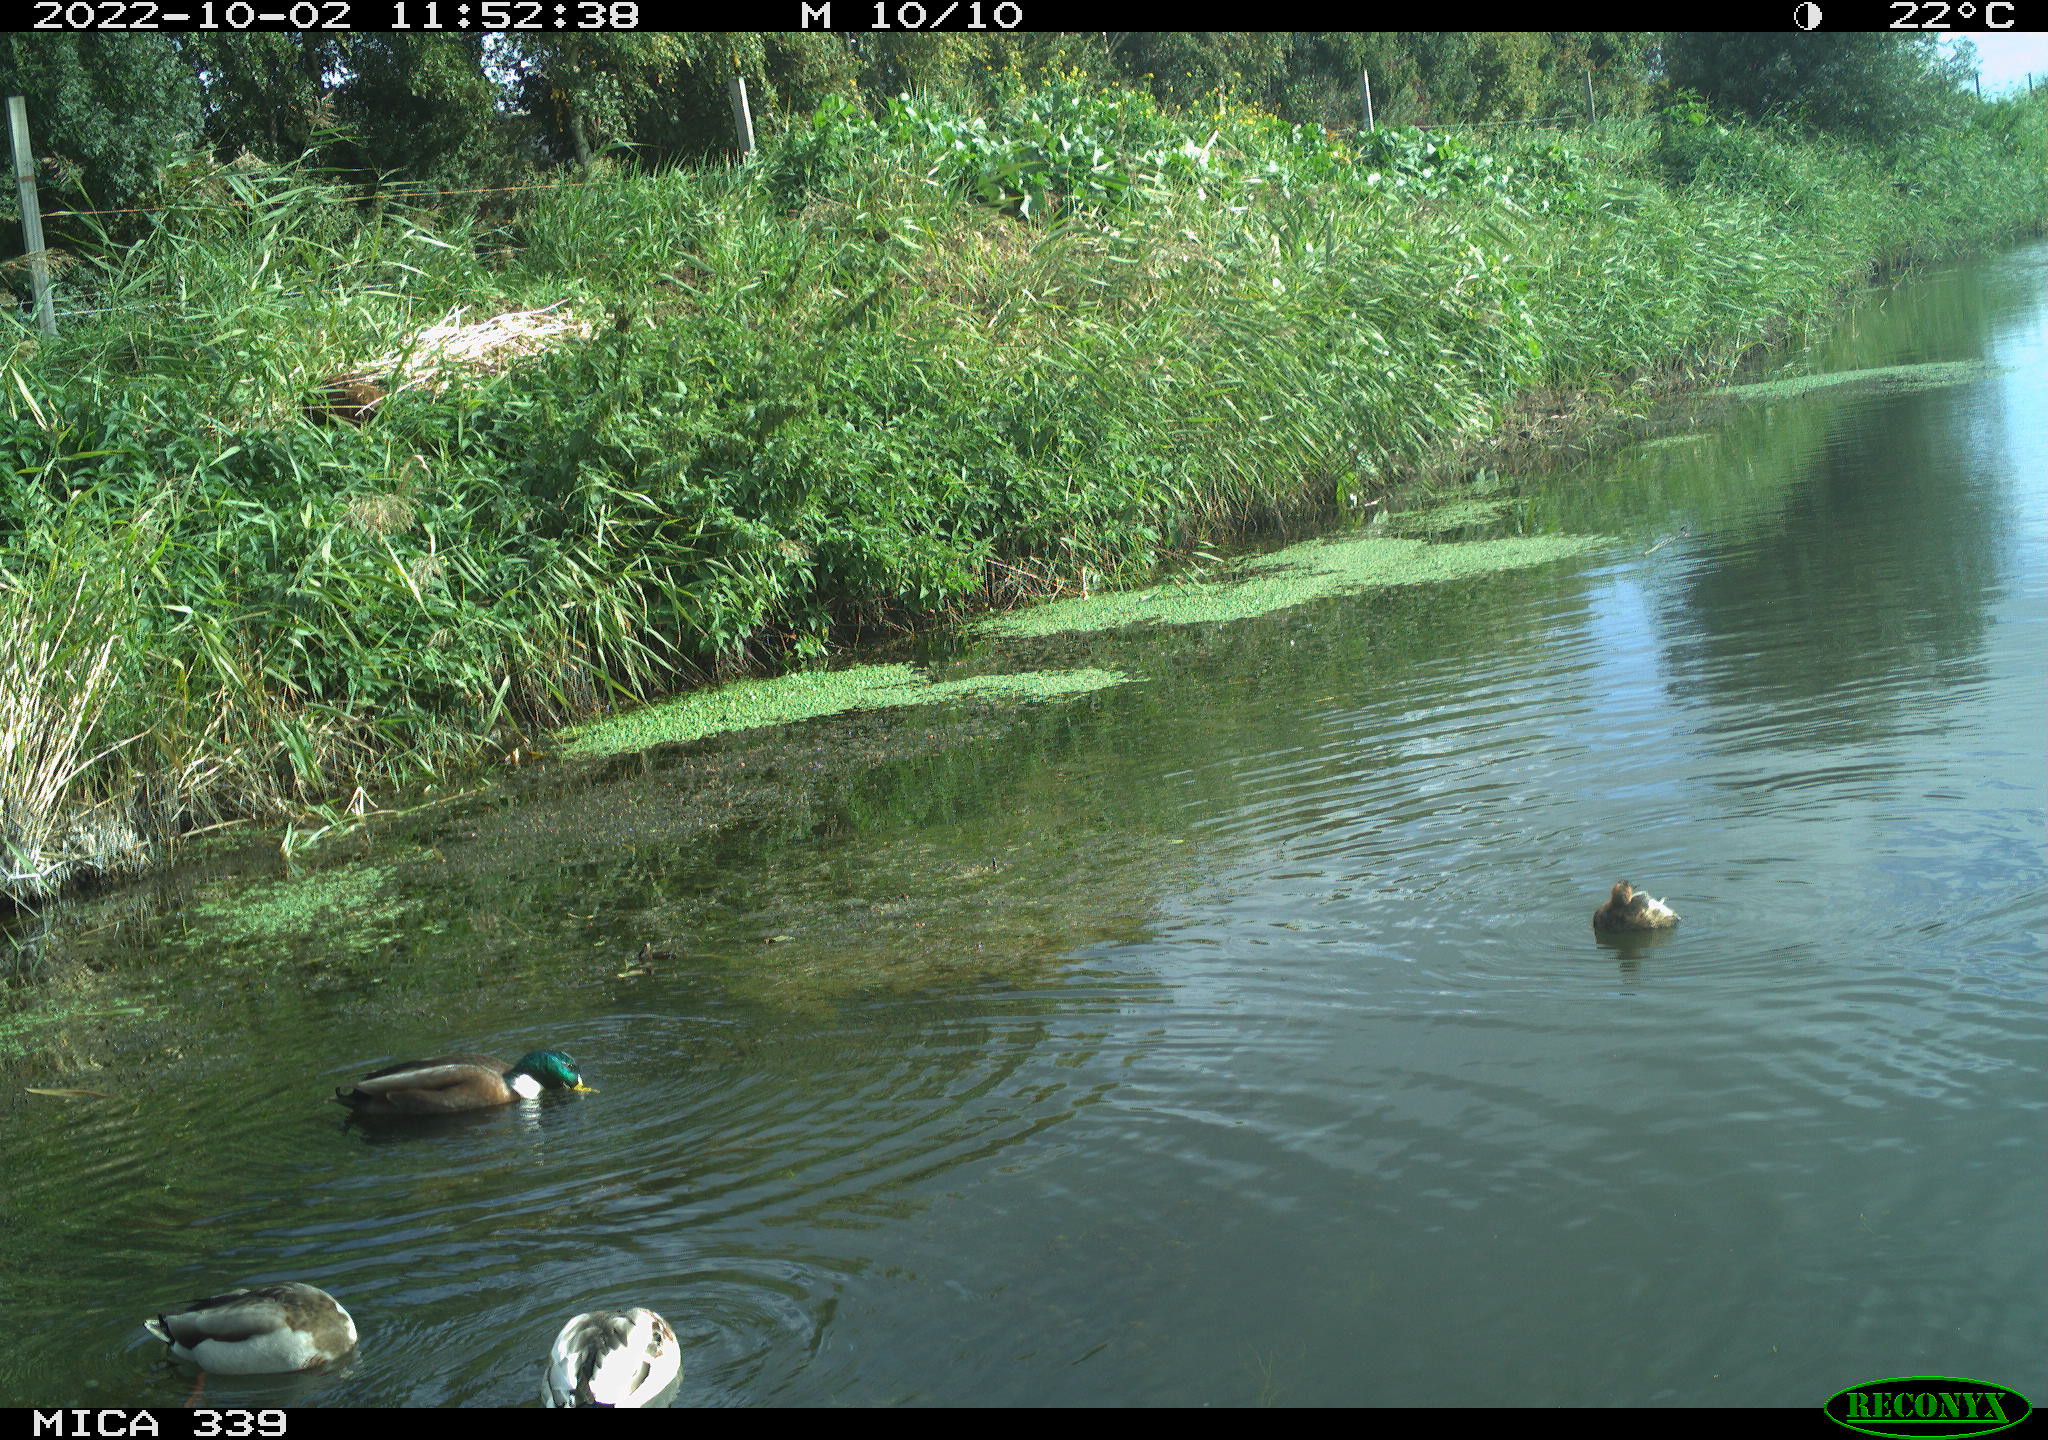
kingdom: Animalia
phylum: Chordata
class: Aves
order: Podicipediformes
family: Podicipedidae
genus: Tachybaptus
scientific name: Tachybaptus ruficollis
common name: Little grebe
